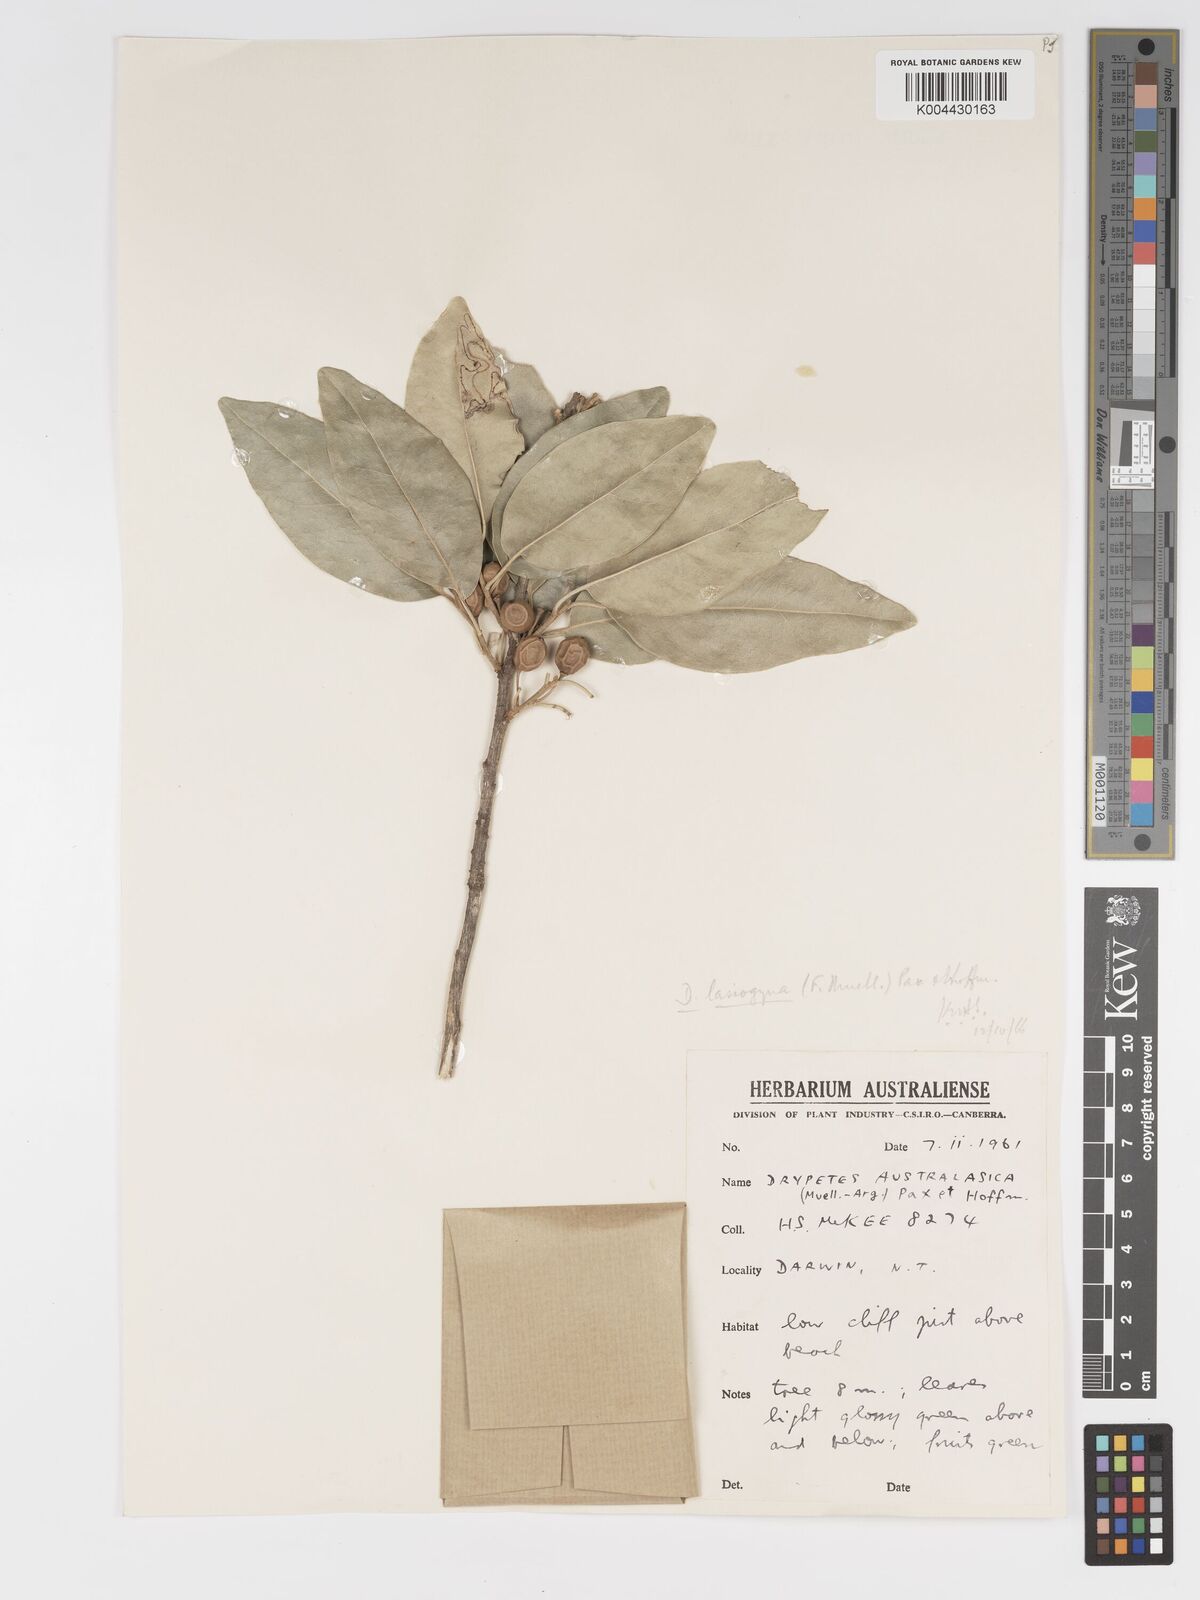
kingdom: Plantae
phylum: Tracheophyta
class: Magnoliopsida
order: Malpighiales
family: Putranjivaceae
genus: Drypetes
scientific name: Drypetes deplanchei
